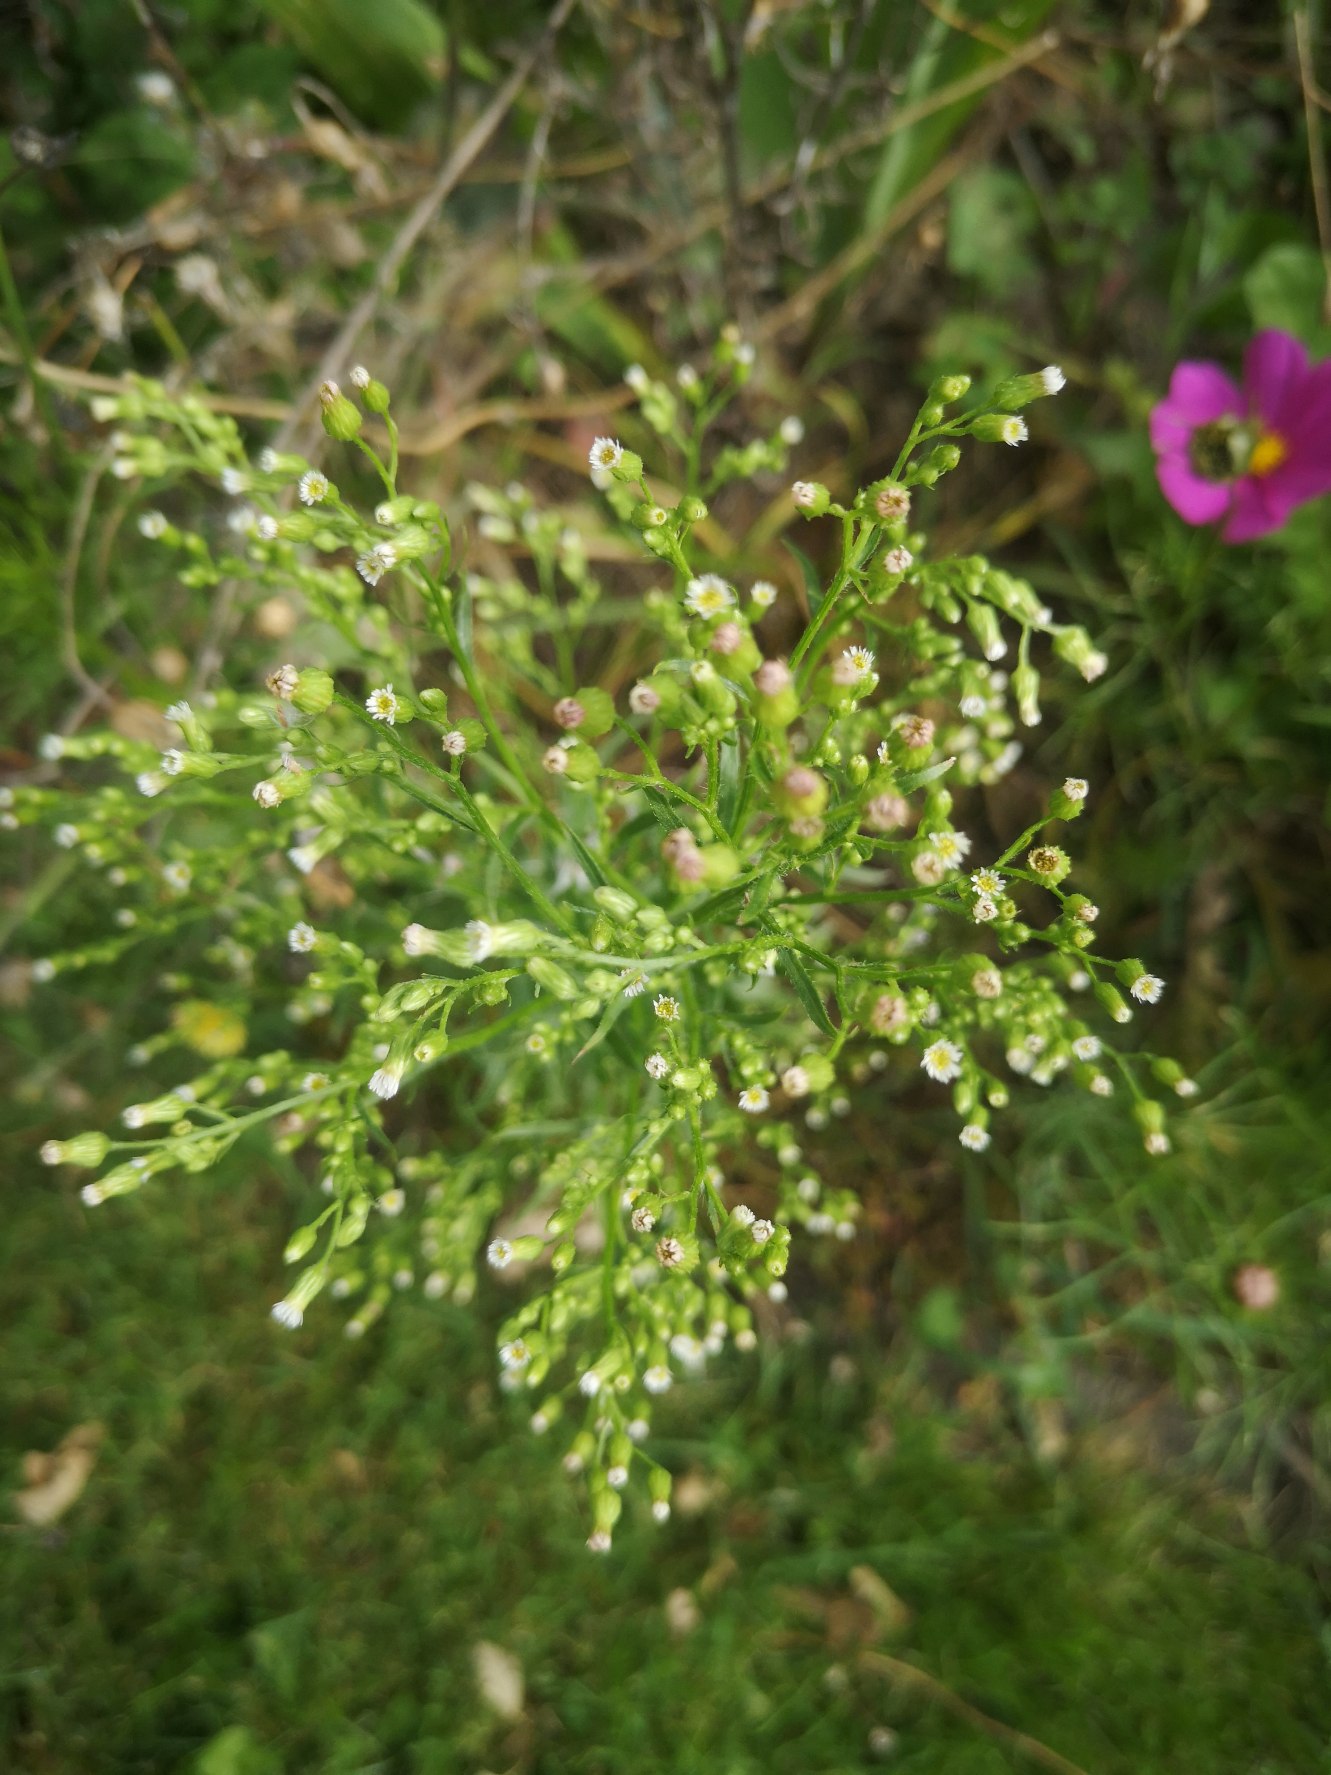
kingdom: Plantae
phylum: Tracheophyta
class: Magnoliopsida
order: Asterales
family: Asteraceae
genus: Erigeron
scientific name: Erigeron canadensis
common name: Kanadisk bakkestjerne
